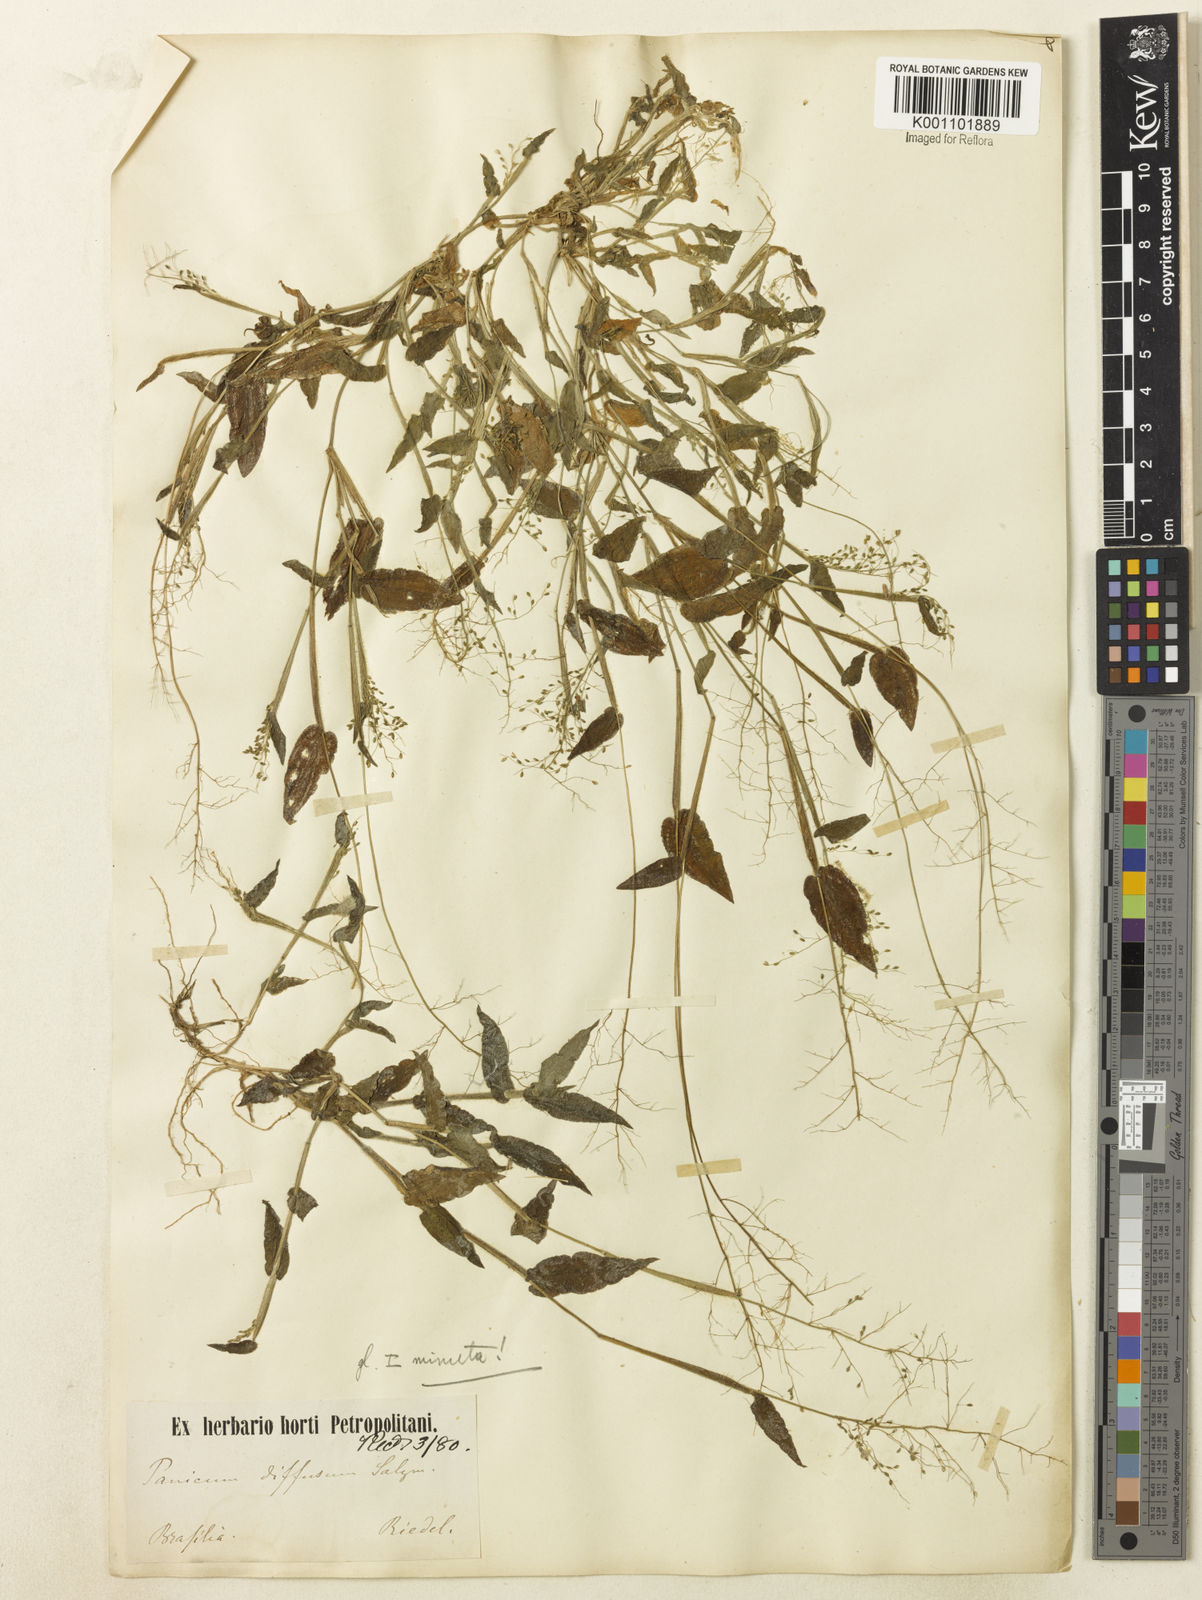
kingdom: Plantae
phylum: Tracheophyta
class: Liliopsida
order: Poales
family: Poaceae
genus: Dichanthelium
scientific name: Dichanthelium sciurotis
